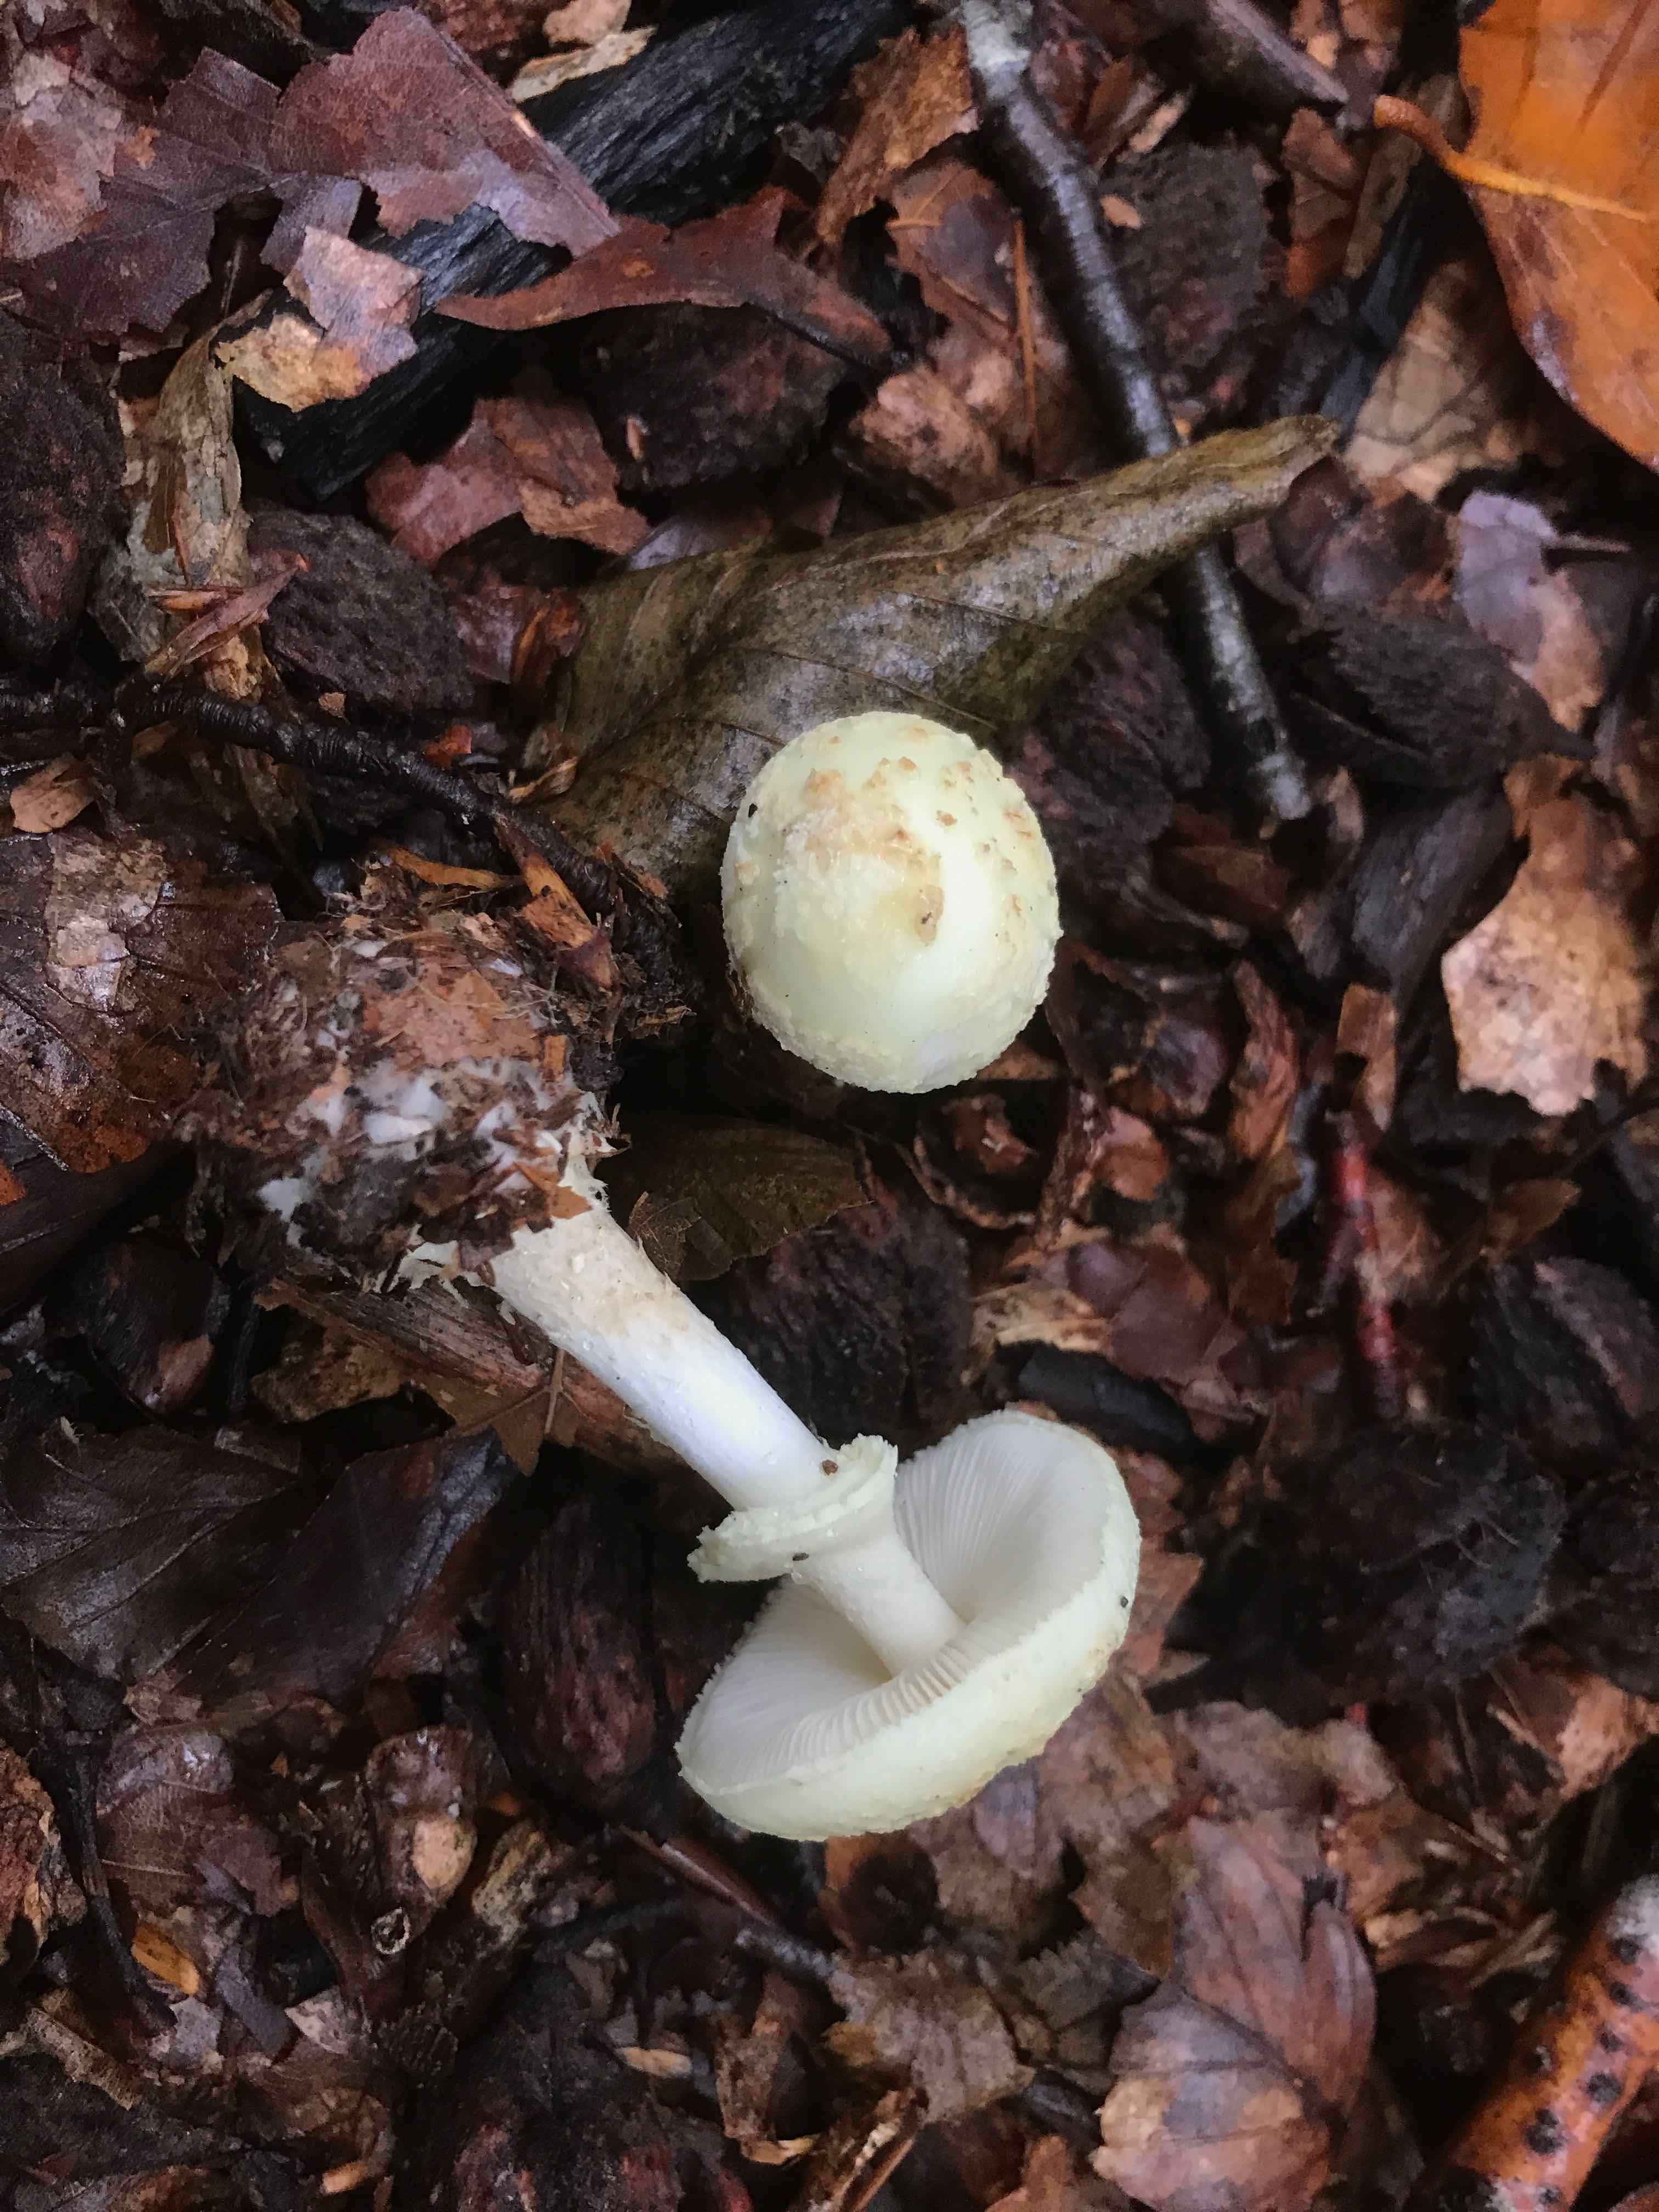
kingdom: Fungi
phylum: Basidiomycota
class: Agaricomycetes
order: Agaricales
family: Amanitaceae
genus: Amanita
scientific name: Amanita citrina
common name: kugleknoldet fluesvamp
